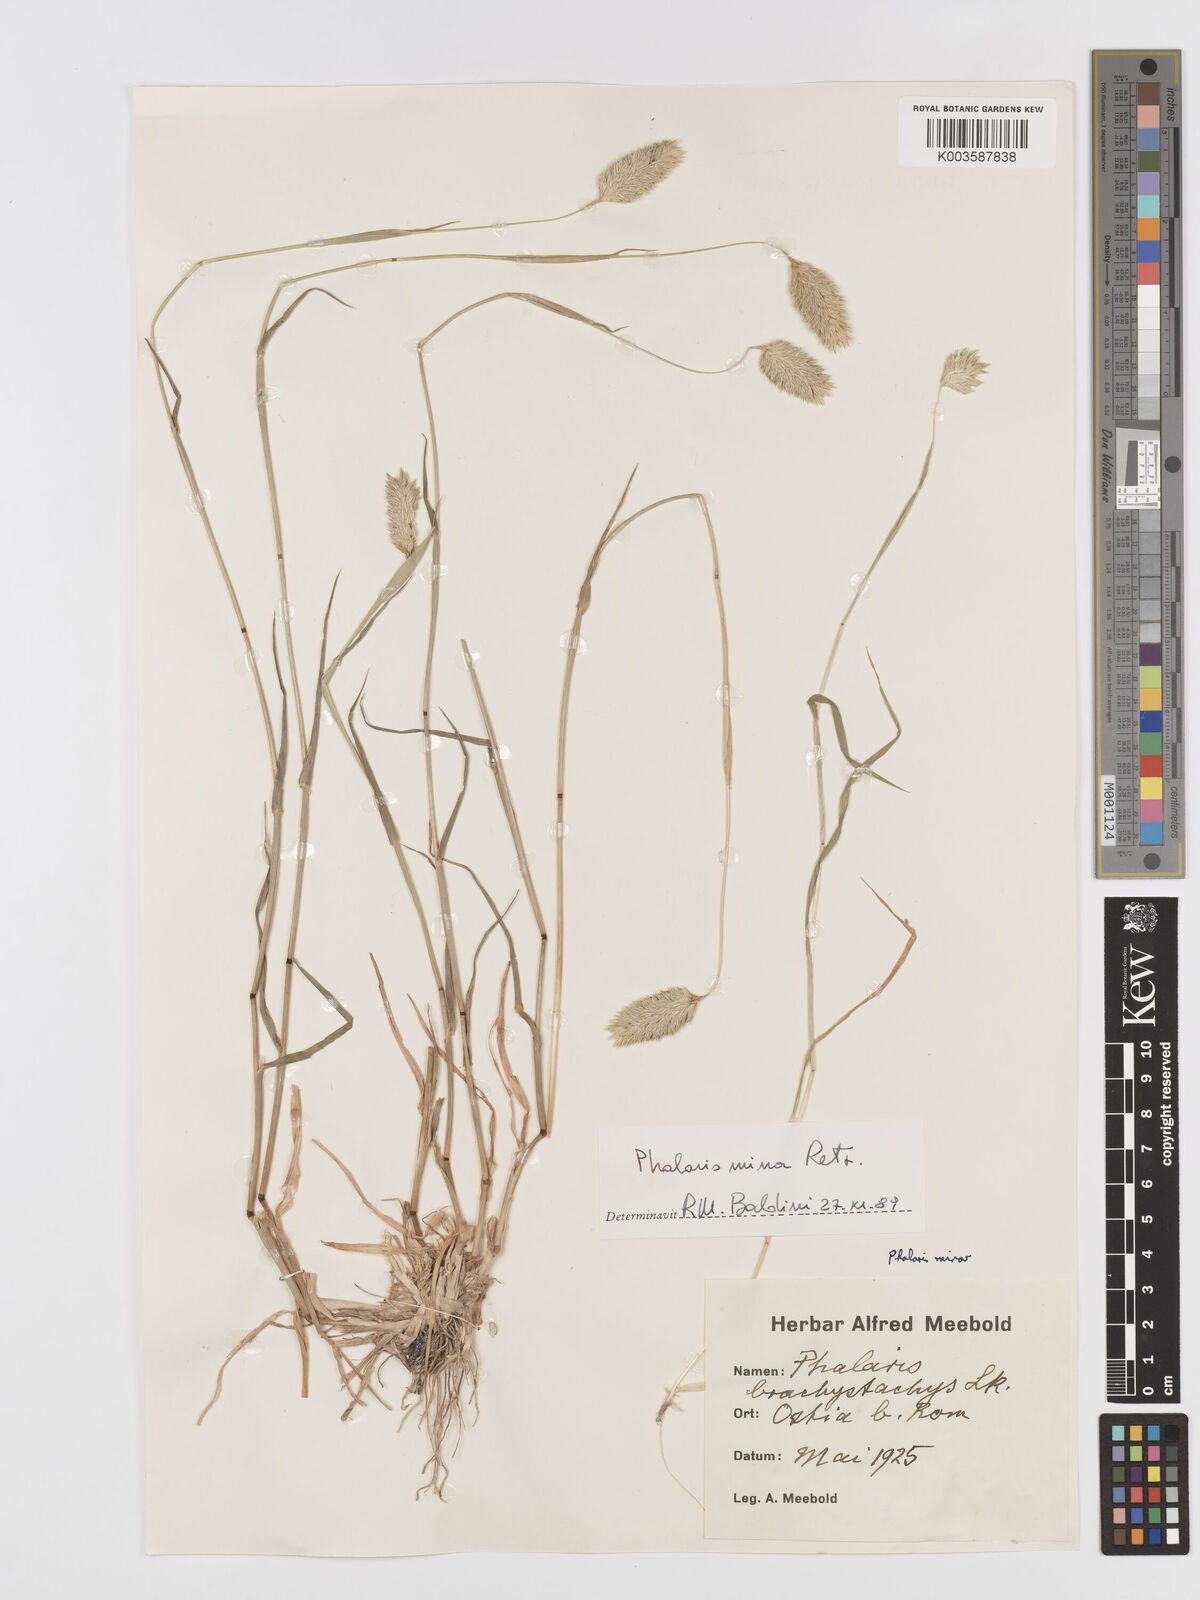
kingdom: Plantae
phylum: Tracheophyta
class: Liliopsida
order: Poales
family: Poaceae
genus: Phalaris
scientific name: Phalaris minor
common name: Littleseed canarygrass
